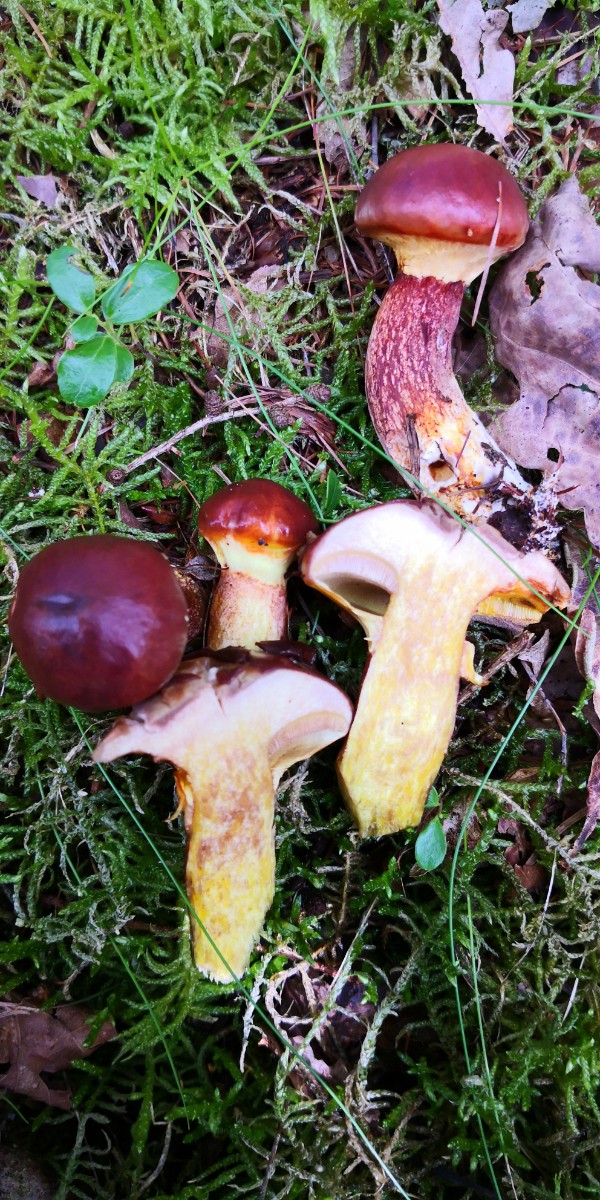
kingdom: Fungi
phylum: Basidiomycota
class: Agaricomycetes
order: Boletales
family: Suillaceae
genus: Suillus
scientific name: Suillus grevillei
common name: Larch bolete
